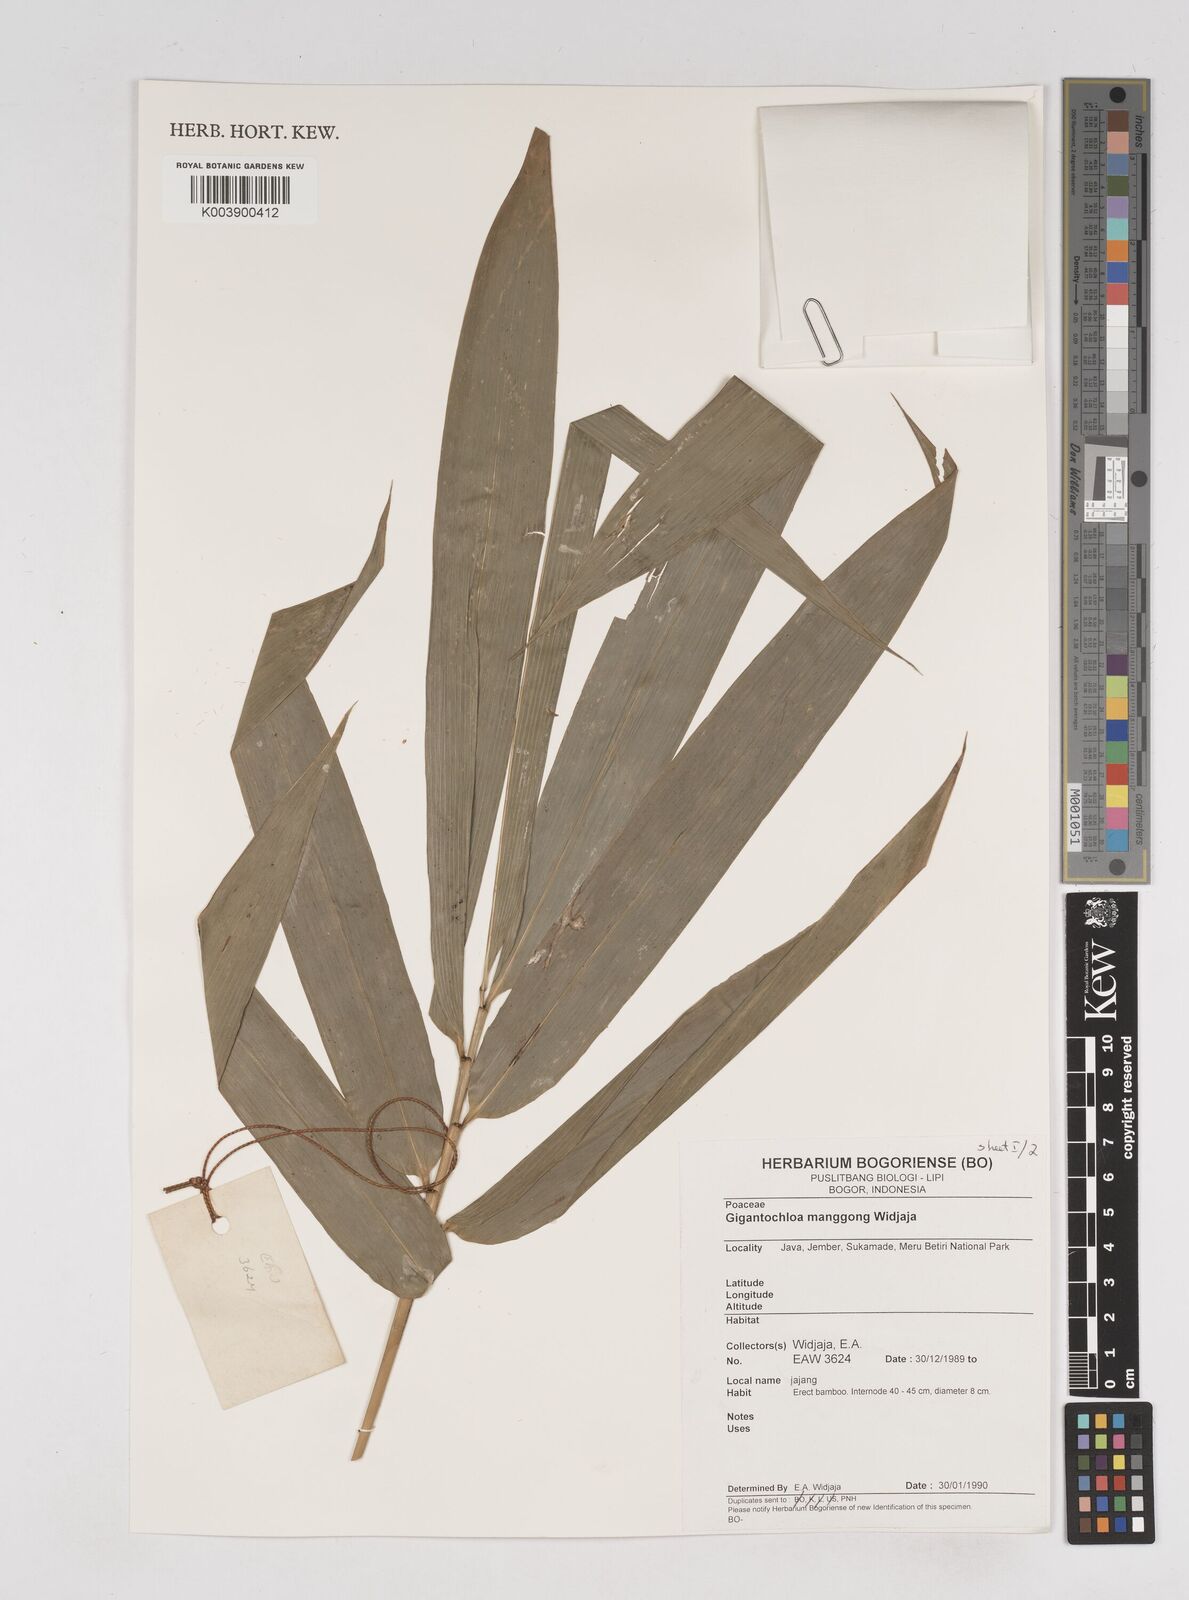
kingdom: Plantae
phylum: Tracheophyta
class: Liliopsida
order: Poales
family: Poaceae
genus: Gigantochloa
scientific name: Gigantochloa manggong
